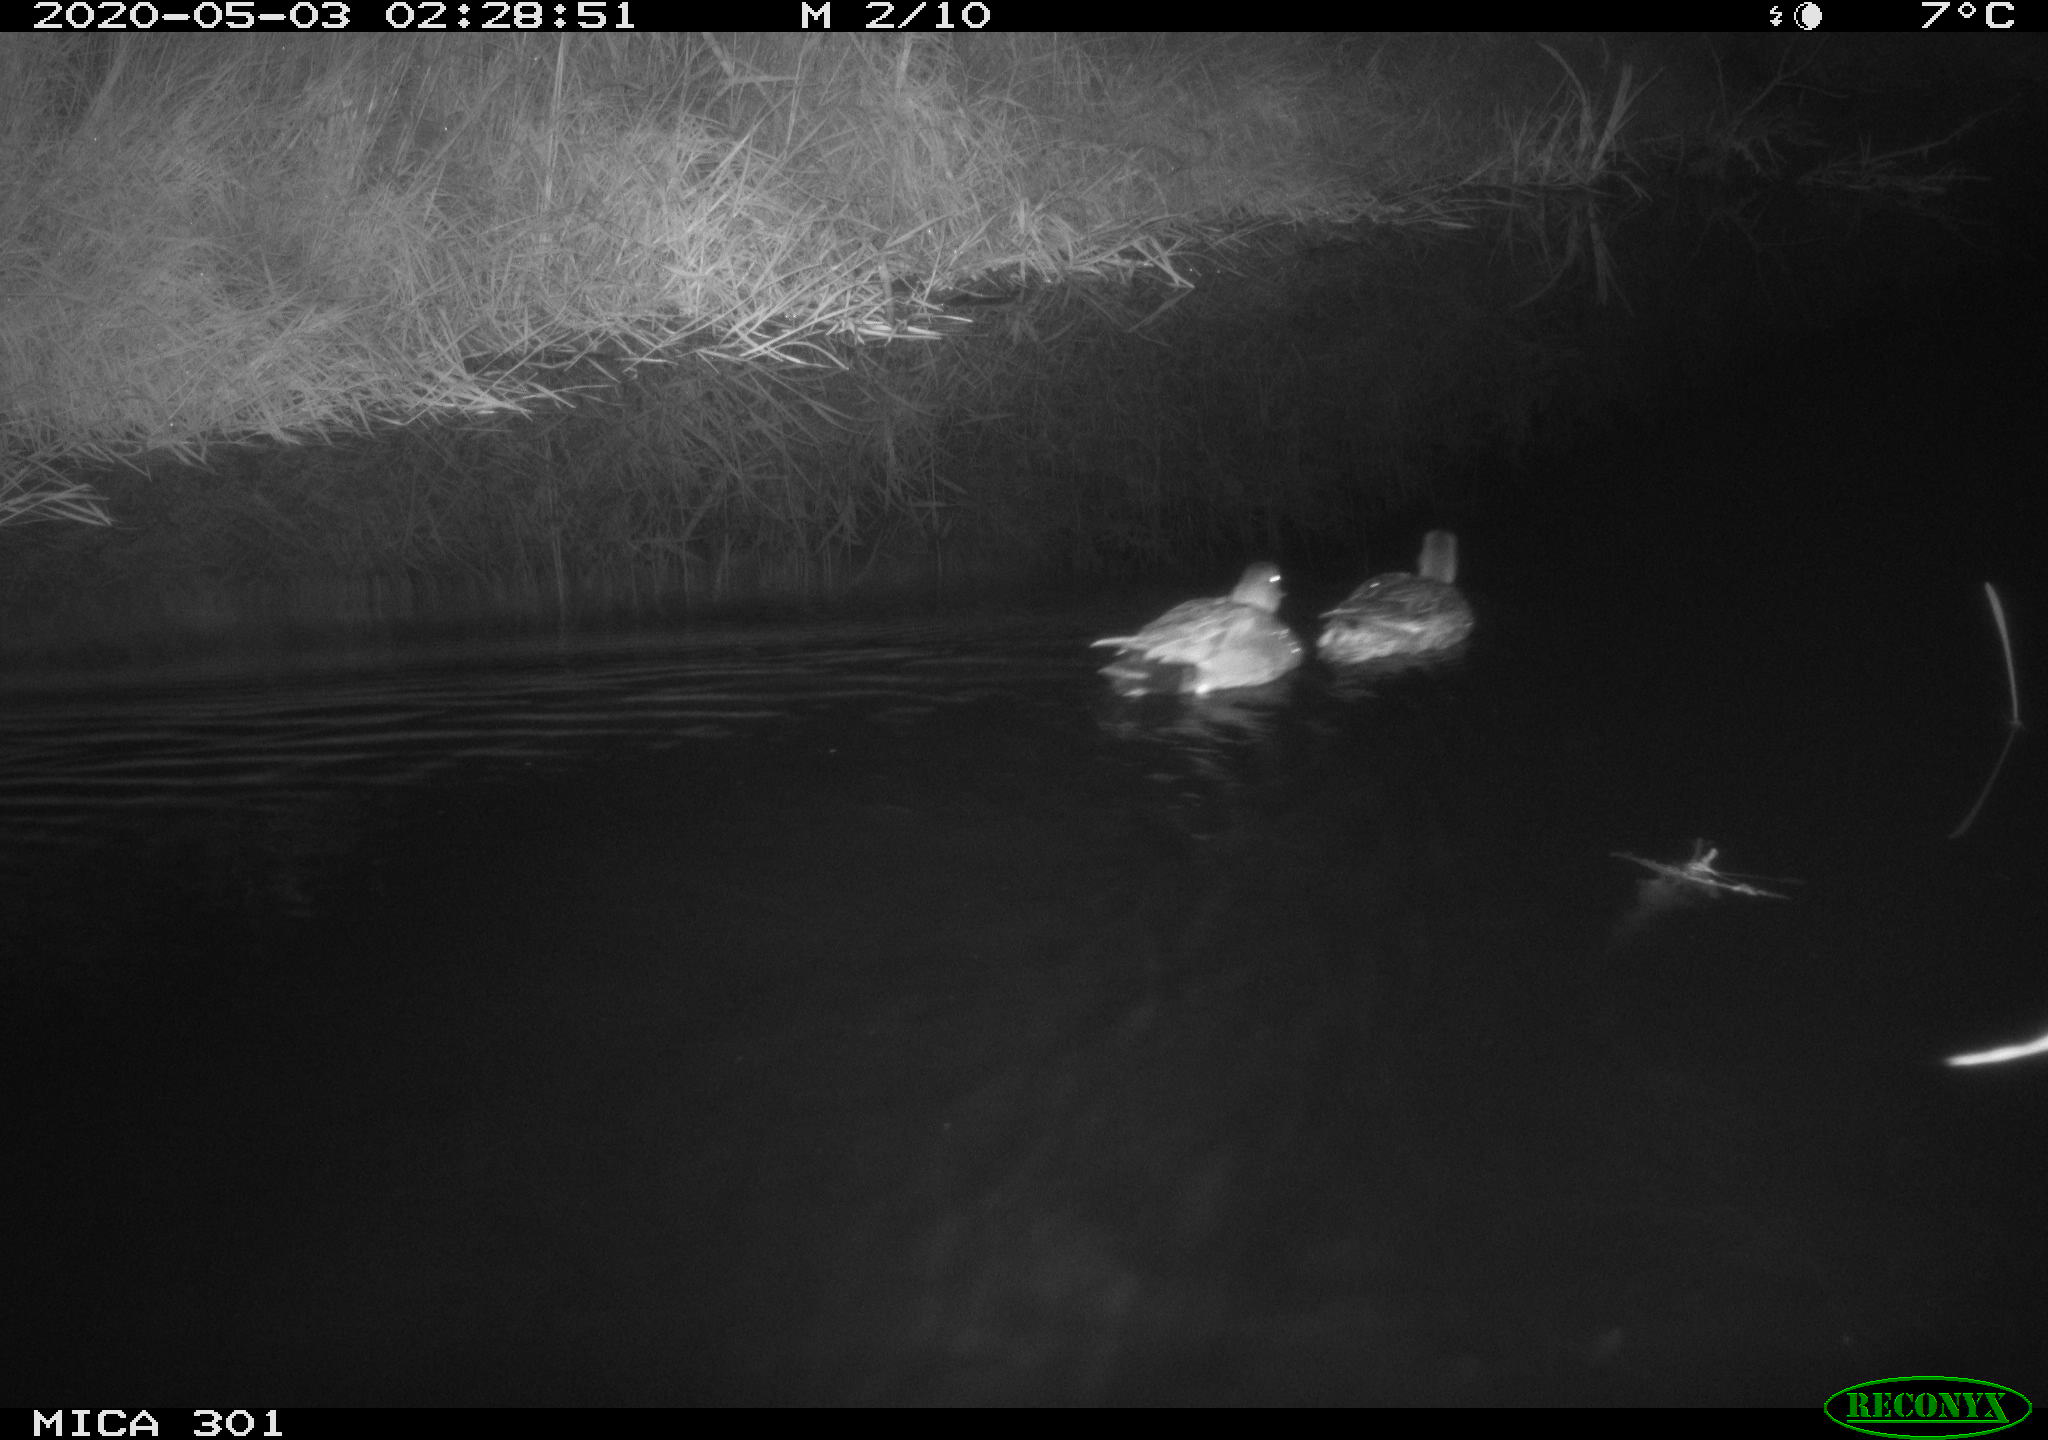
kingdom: Animalia
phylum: Chordata
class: Aves
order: Anseriformes
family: Anatidae
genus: Mareca
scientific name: Mareca strepera
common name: Gadwall
